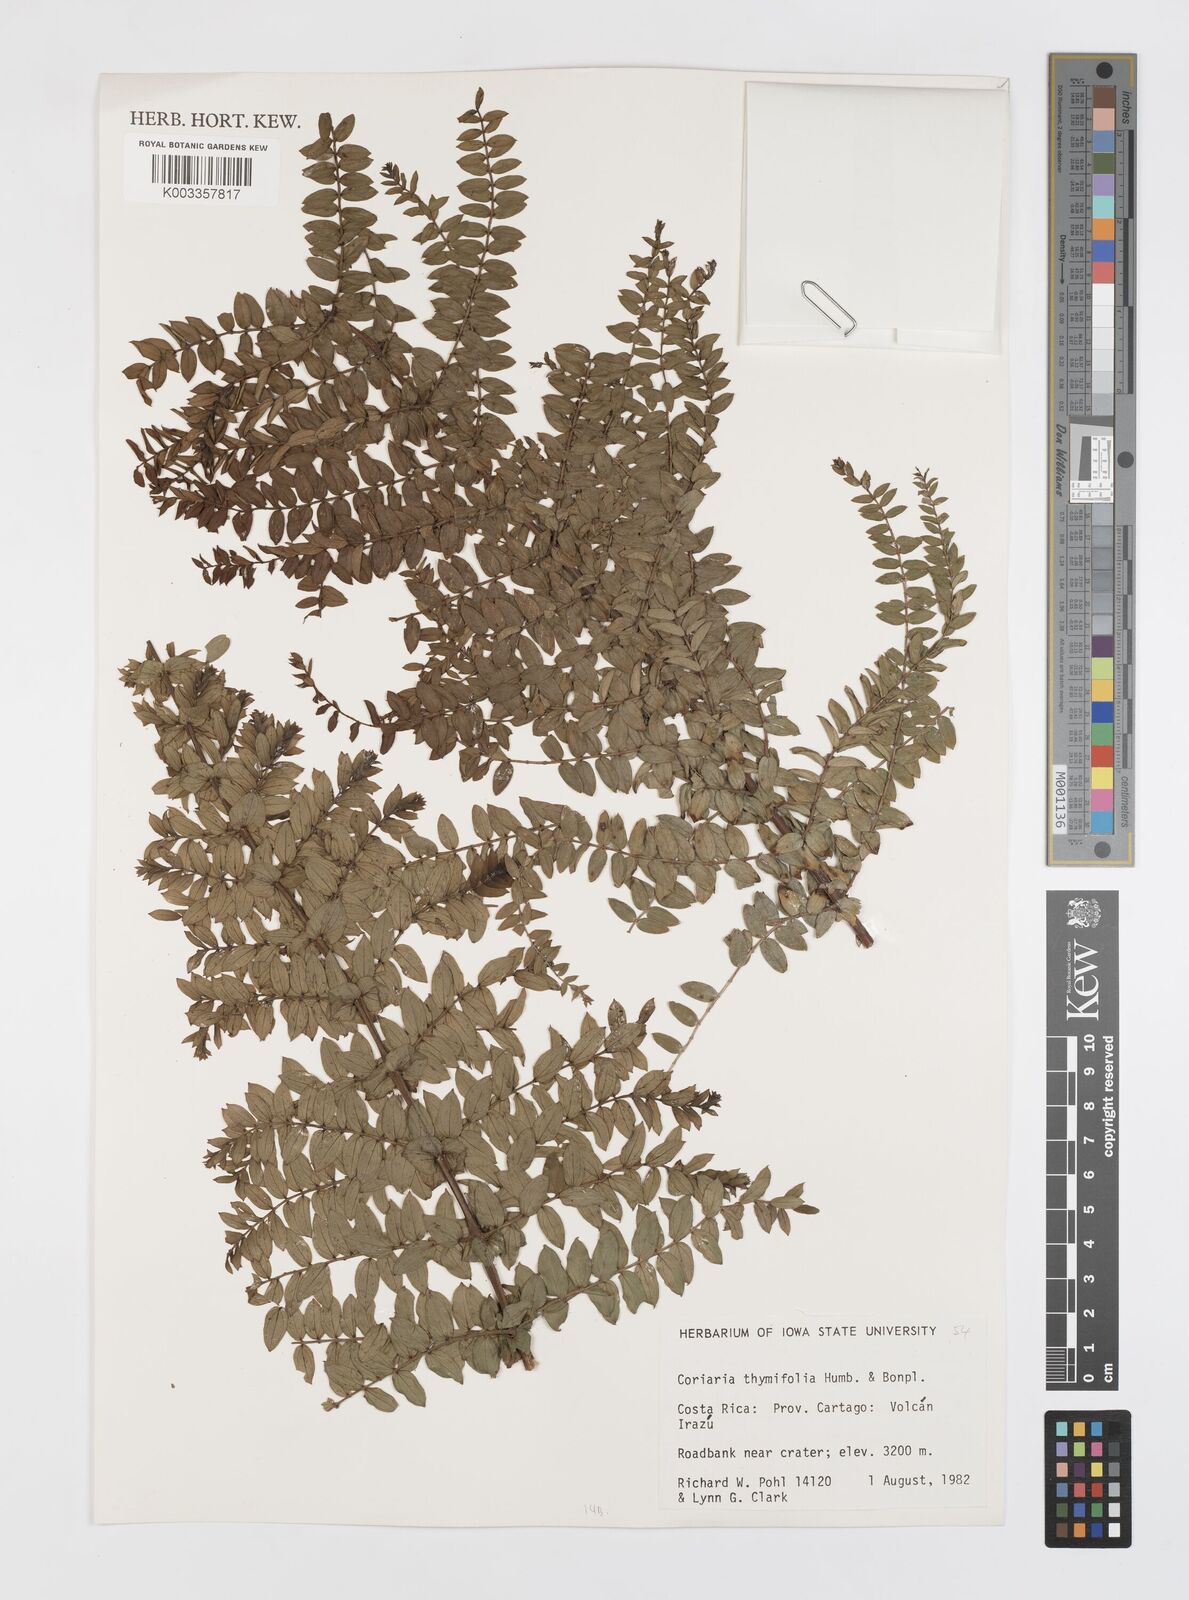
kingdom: Plantae
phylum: Tracheophyta
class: Magnoliopsida
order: Cucurbitales
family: Coriariaceae
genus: Coriaria
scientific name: Coriaria microphylla
